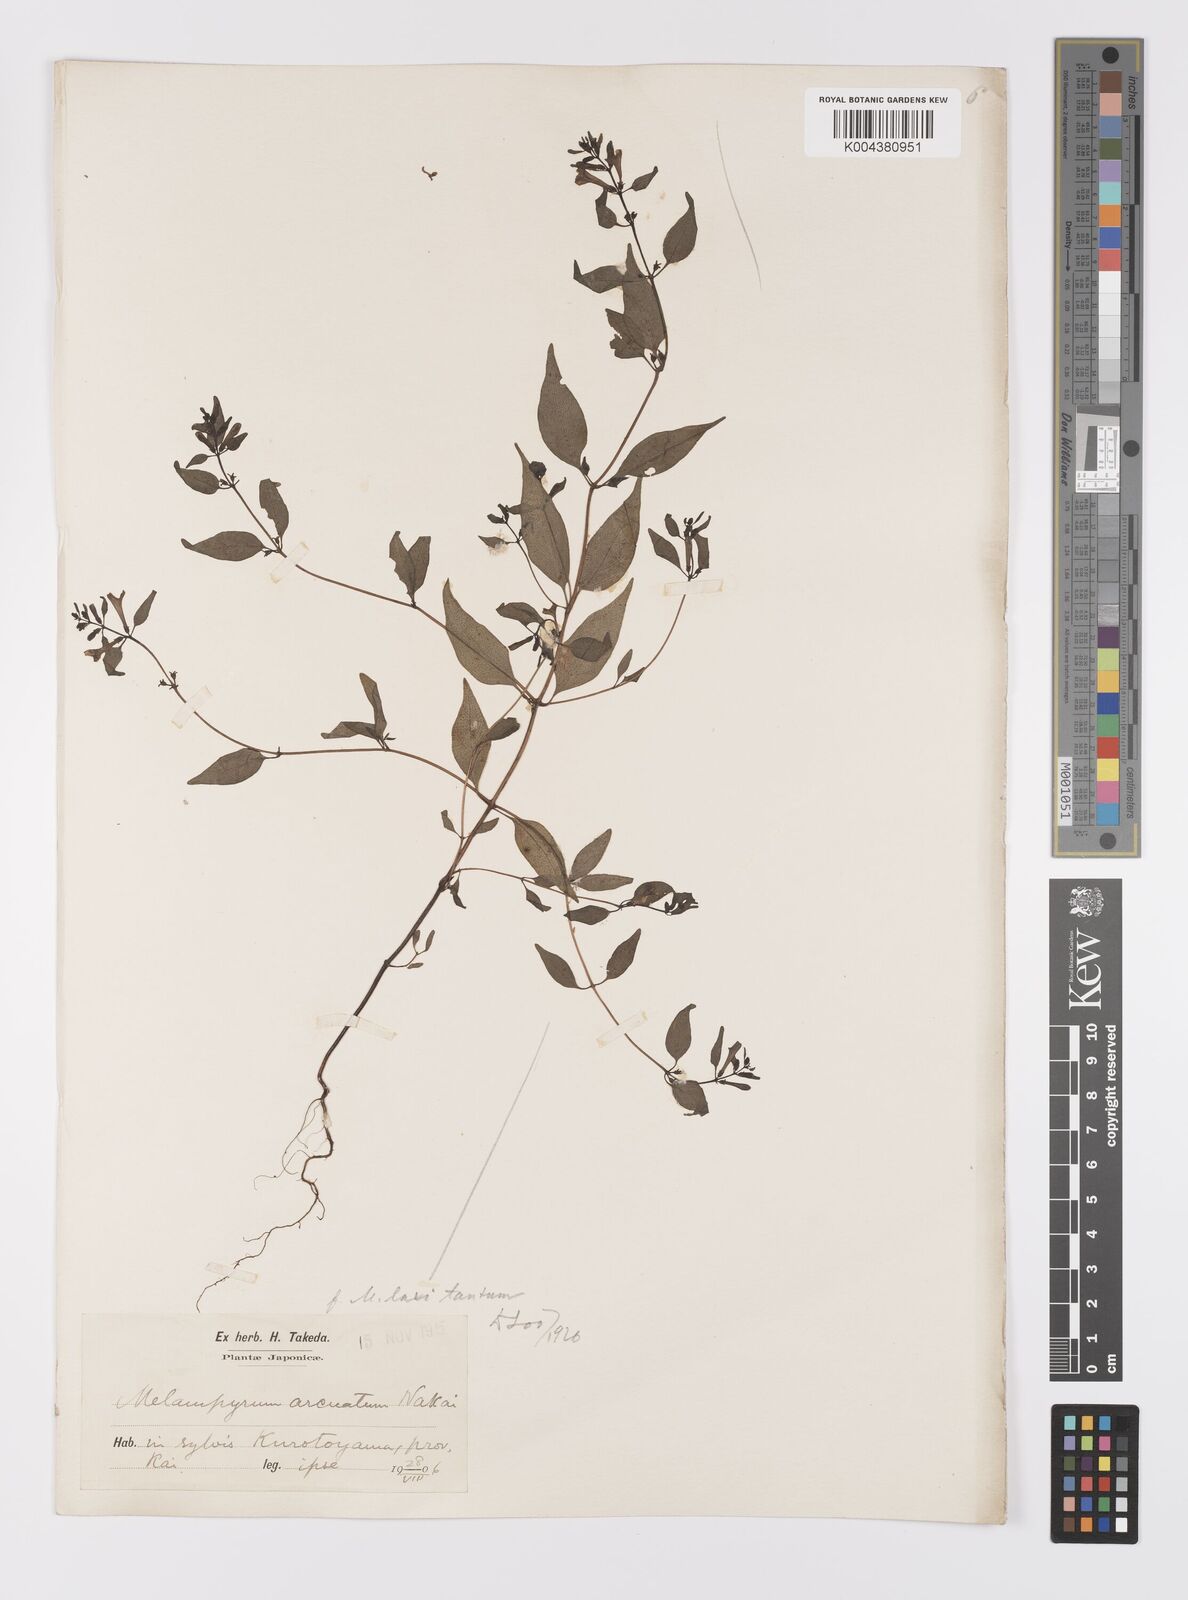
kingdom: Plantae
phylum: Tracheophyta
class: Magnoliopsida
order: Lamiales
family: Orobanchaceae
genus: Melampyrum
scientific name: Melampyrum laxum
